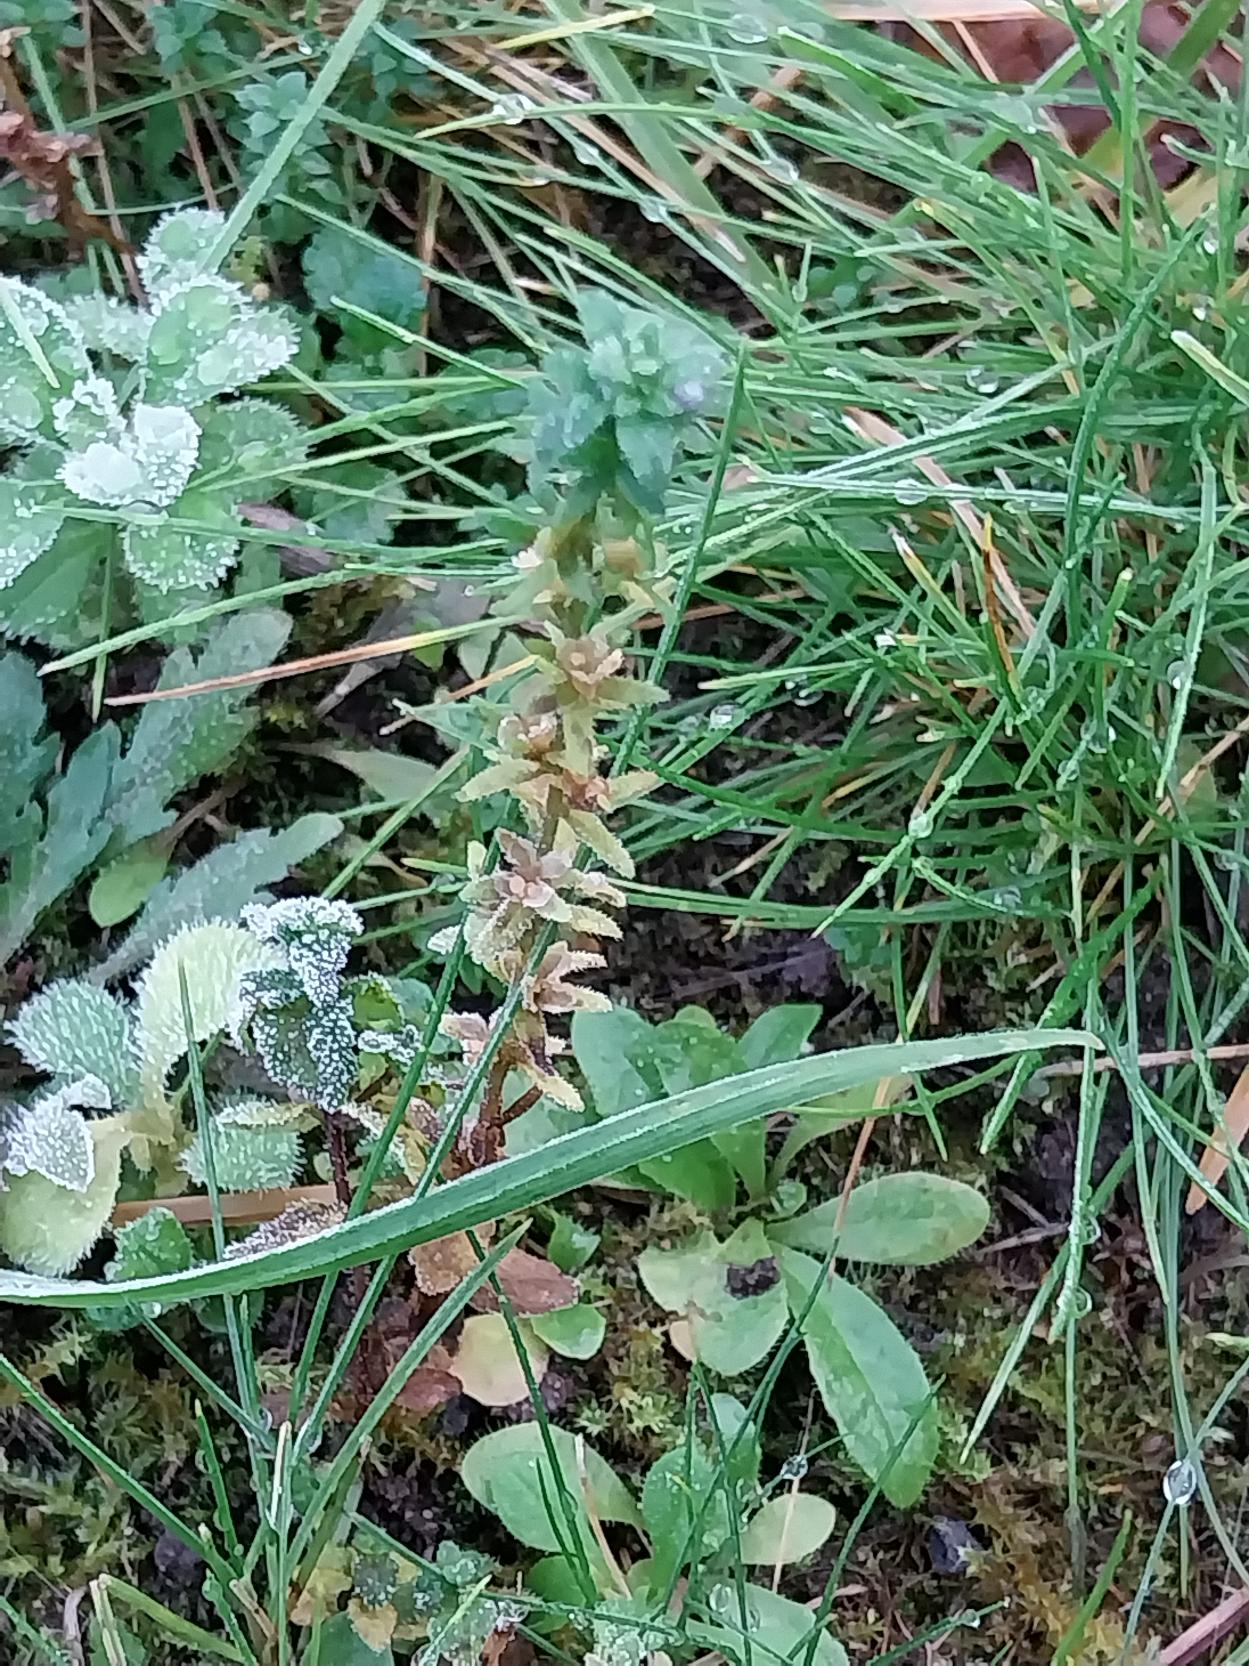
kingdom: Plantae
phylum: Tracheophyta
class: Magnoliopsida
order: Lamiales
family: Plantaginaceae
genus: Veronica
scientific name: Veronica arvensis
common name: Mark-ærenpris
